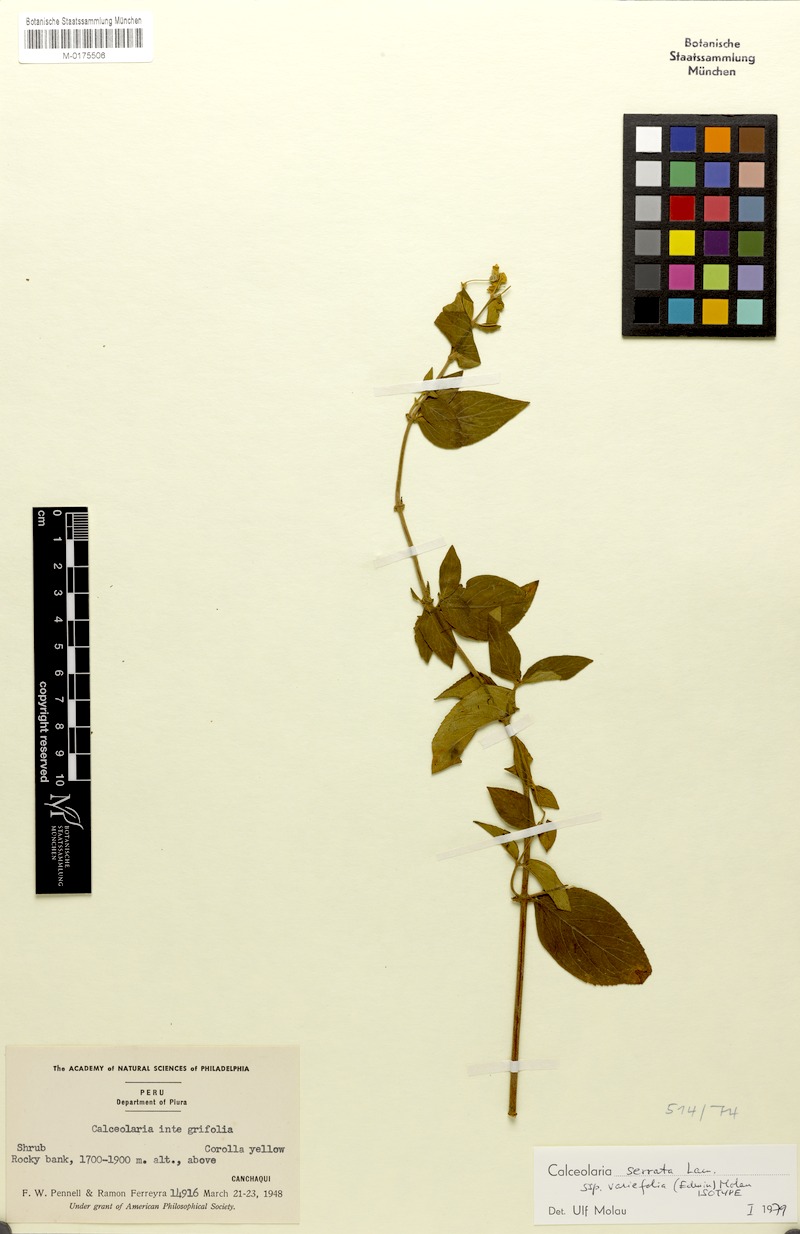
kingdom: Plantae
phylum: Tracheophyta
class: Magnoliopsida
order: Lamiales
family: Calceolariaceae
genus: Calceolaria
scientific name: Calceolaria serrata
